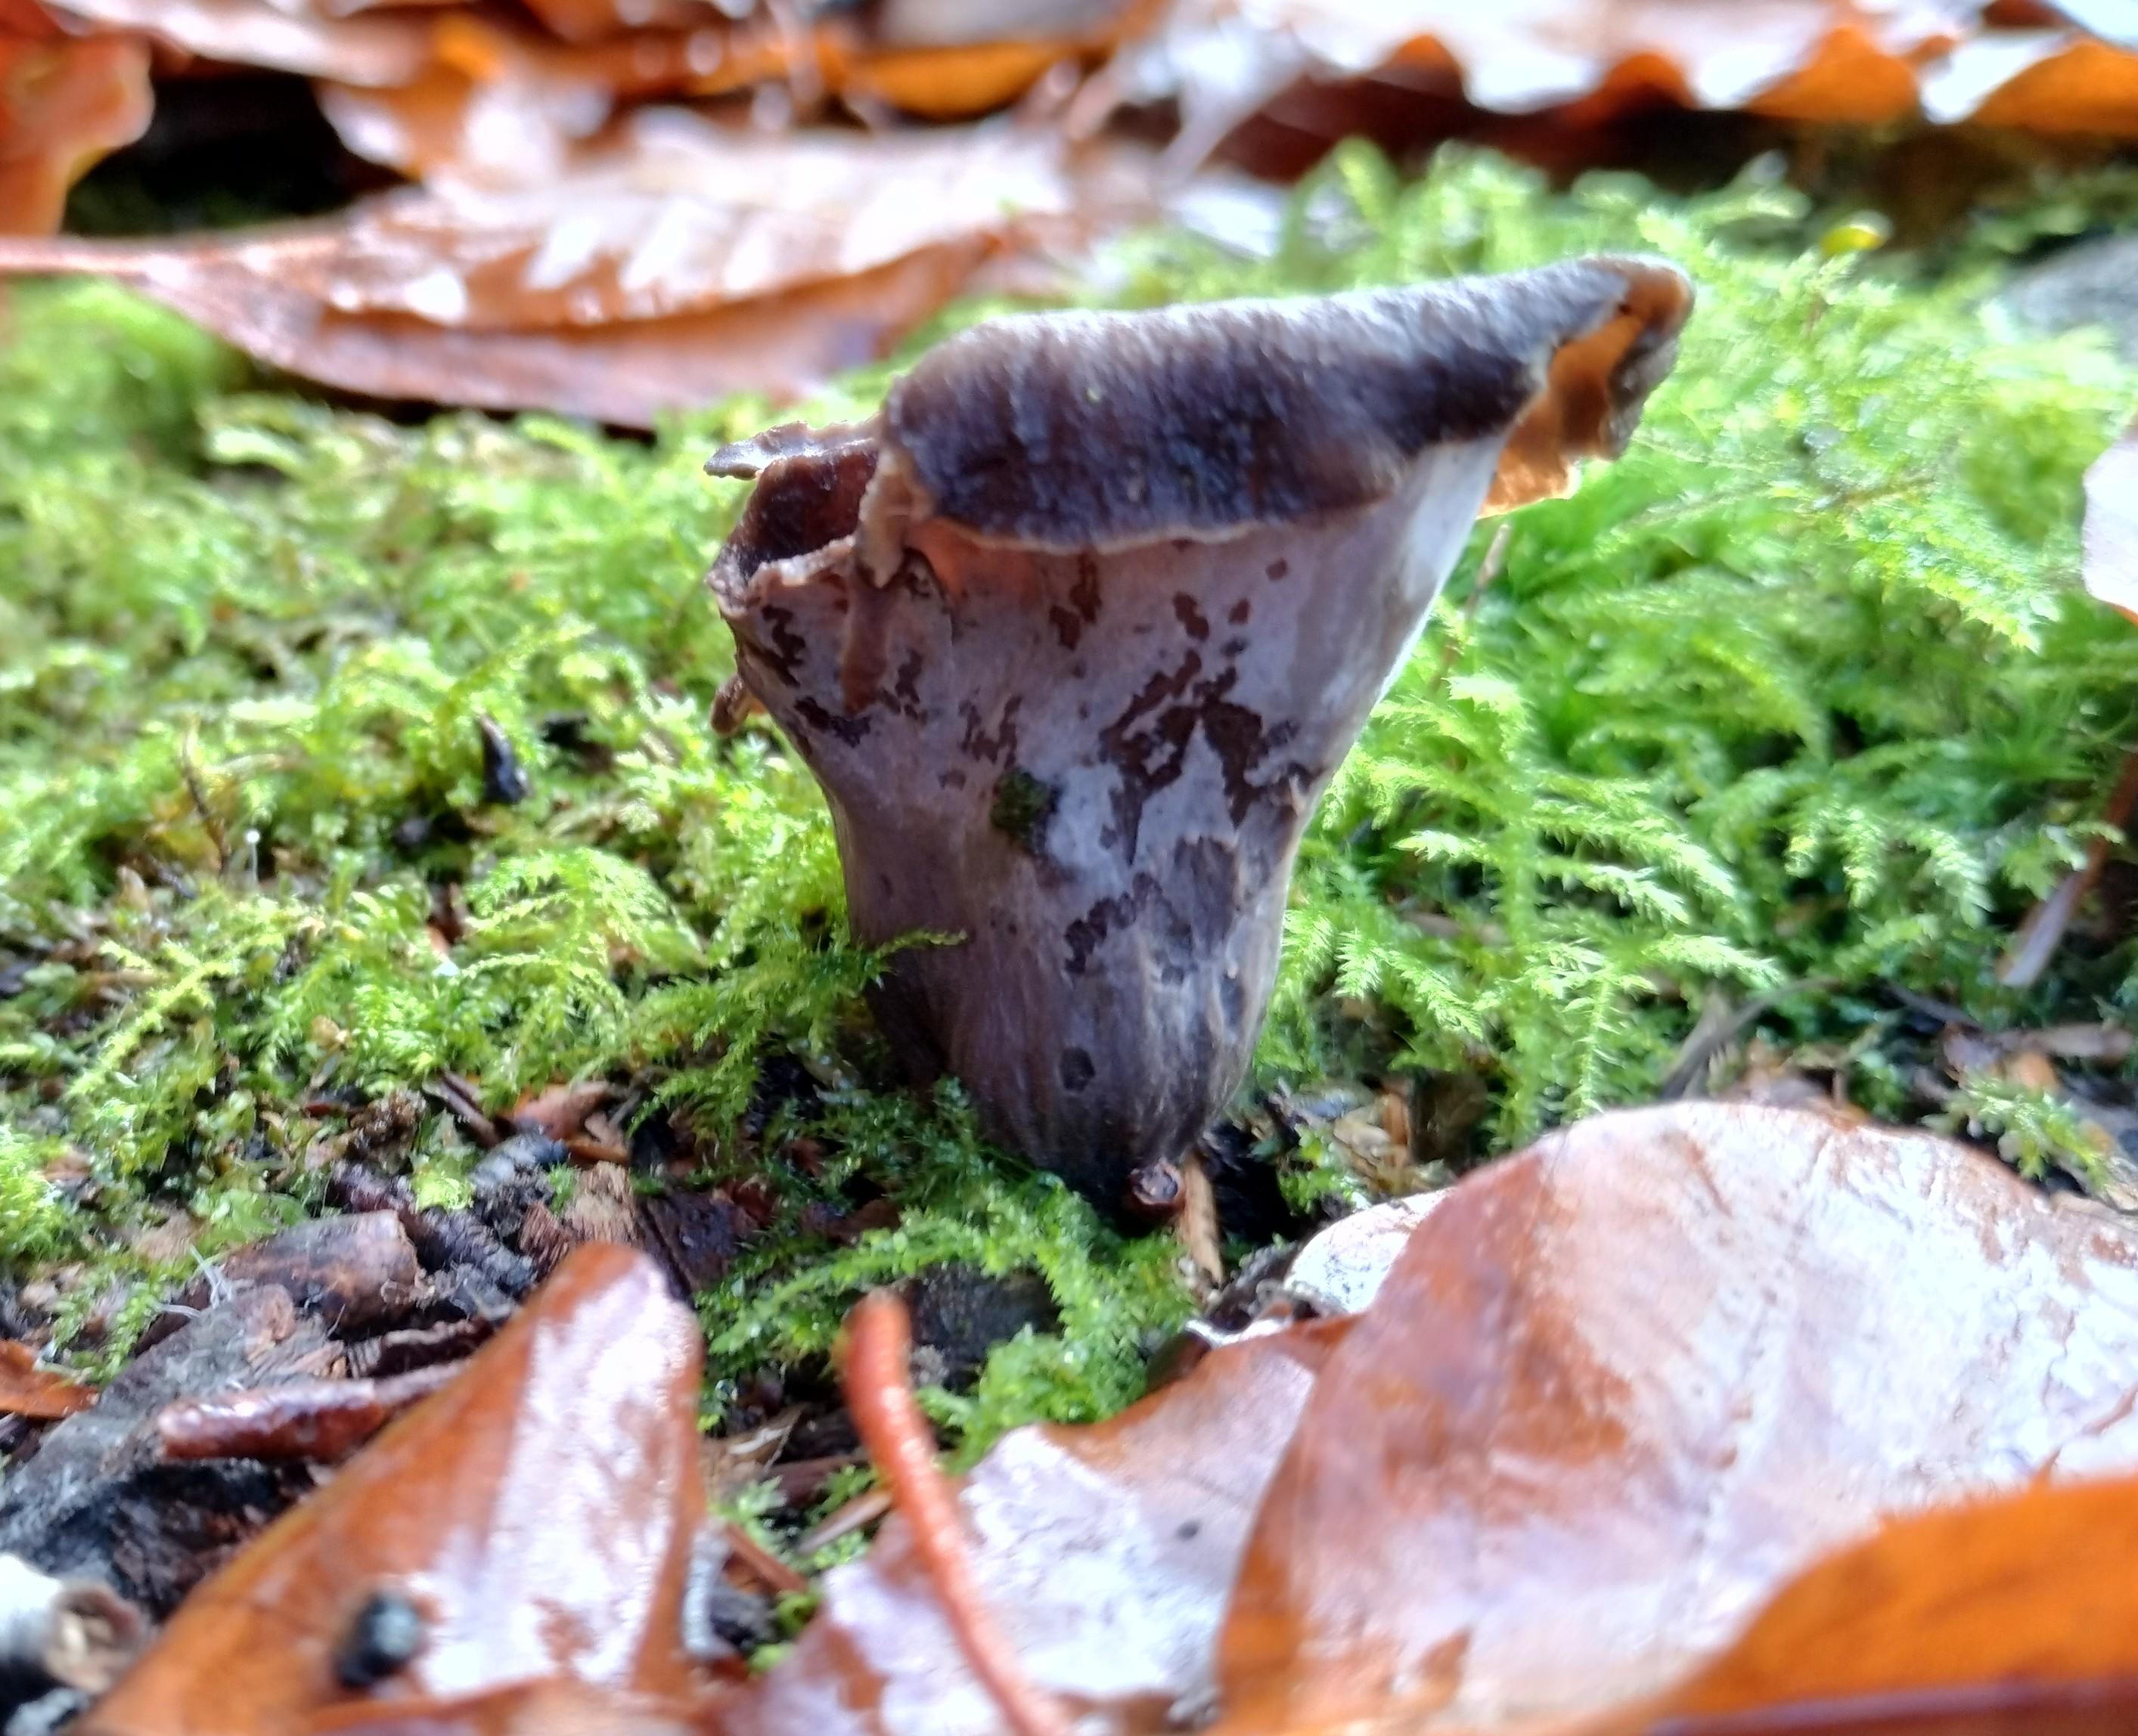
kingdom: Fungi
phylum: Basidiomycota
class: Agaricomycetes
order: Cantharellales
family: Hydnaceae
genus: Craterellus
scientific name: Craterellus cornucopioides
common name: trompetsvamp
